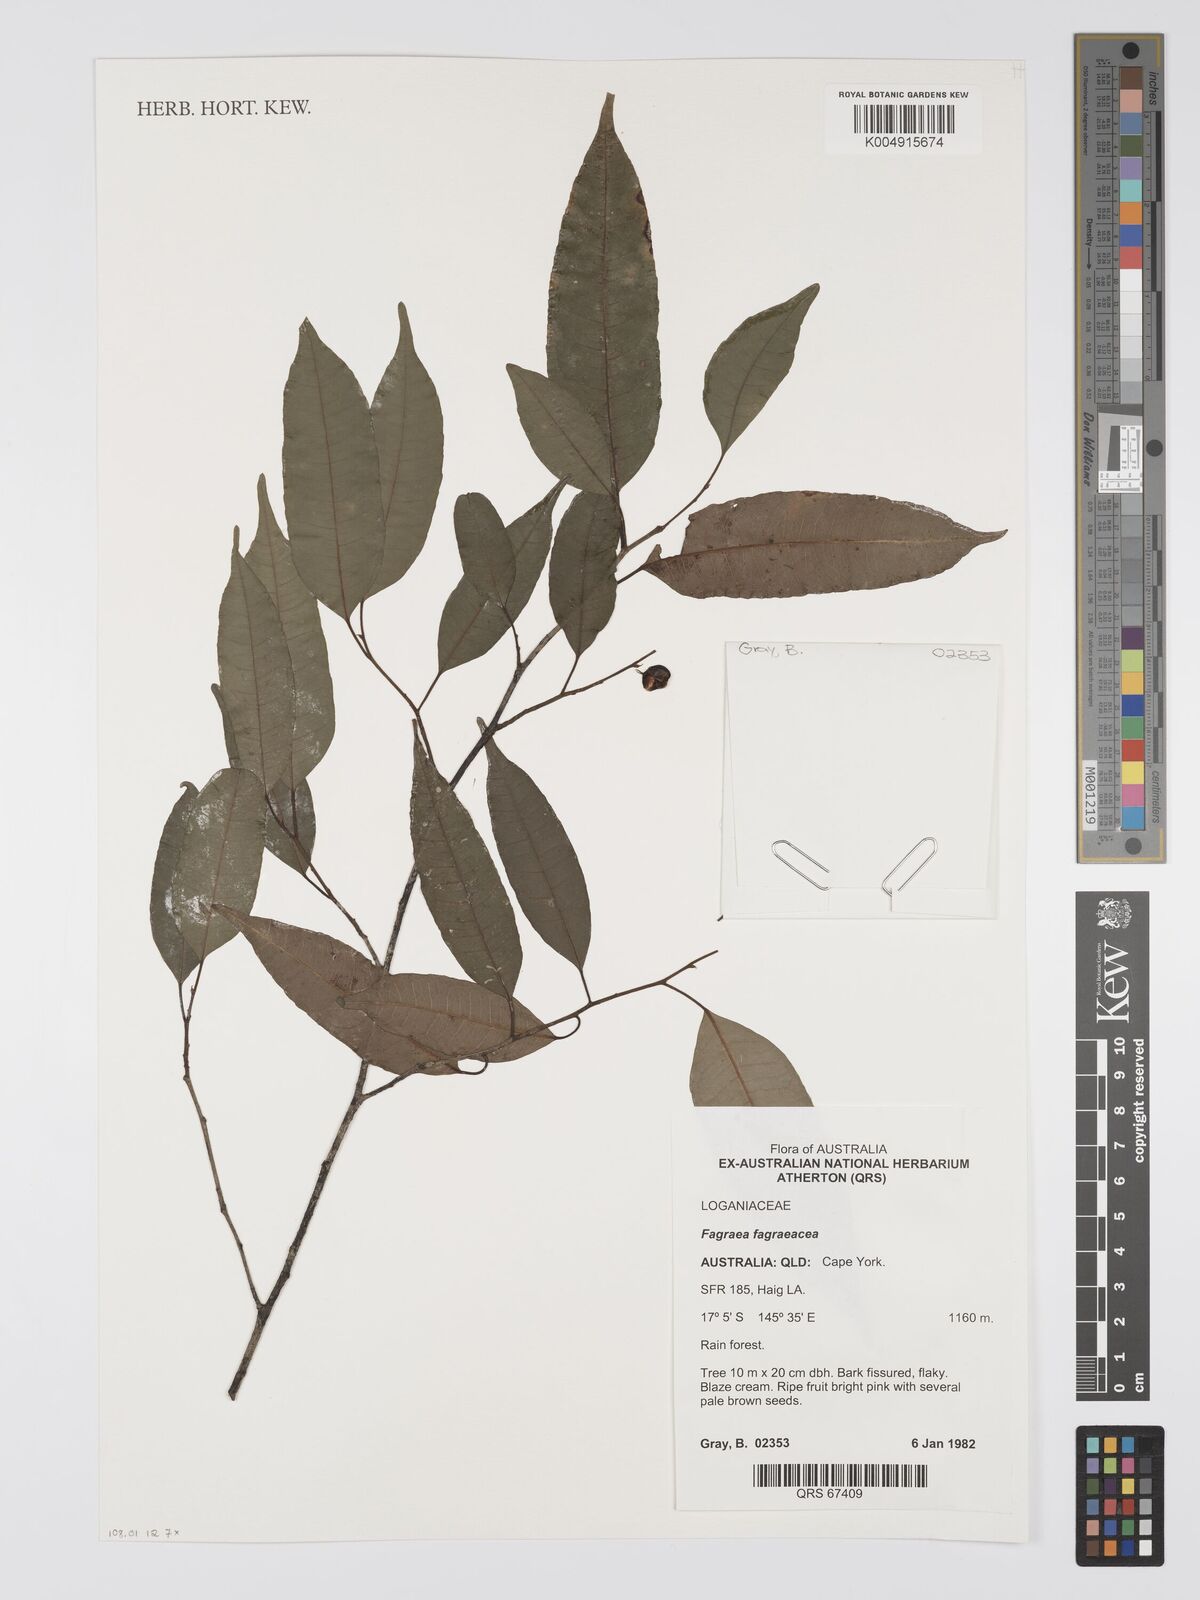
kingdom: Plantae
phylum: Tracheophyta
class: Magnoliopsida
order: Gentianales
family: Gentianaceae
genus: Fagraea
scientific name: Fagraea gracilipes
